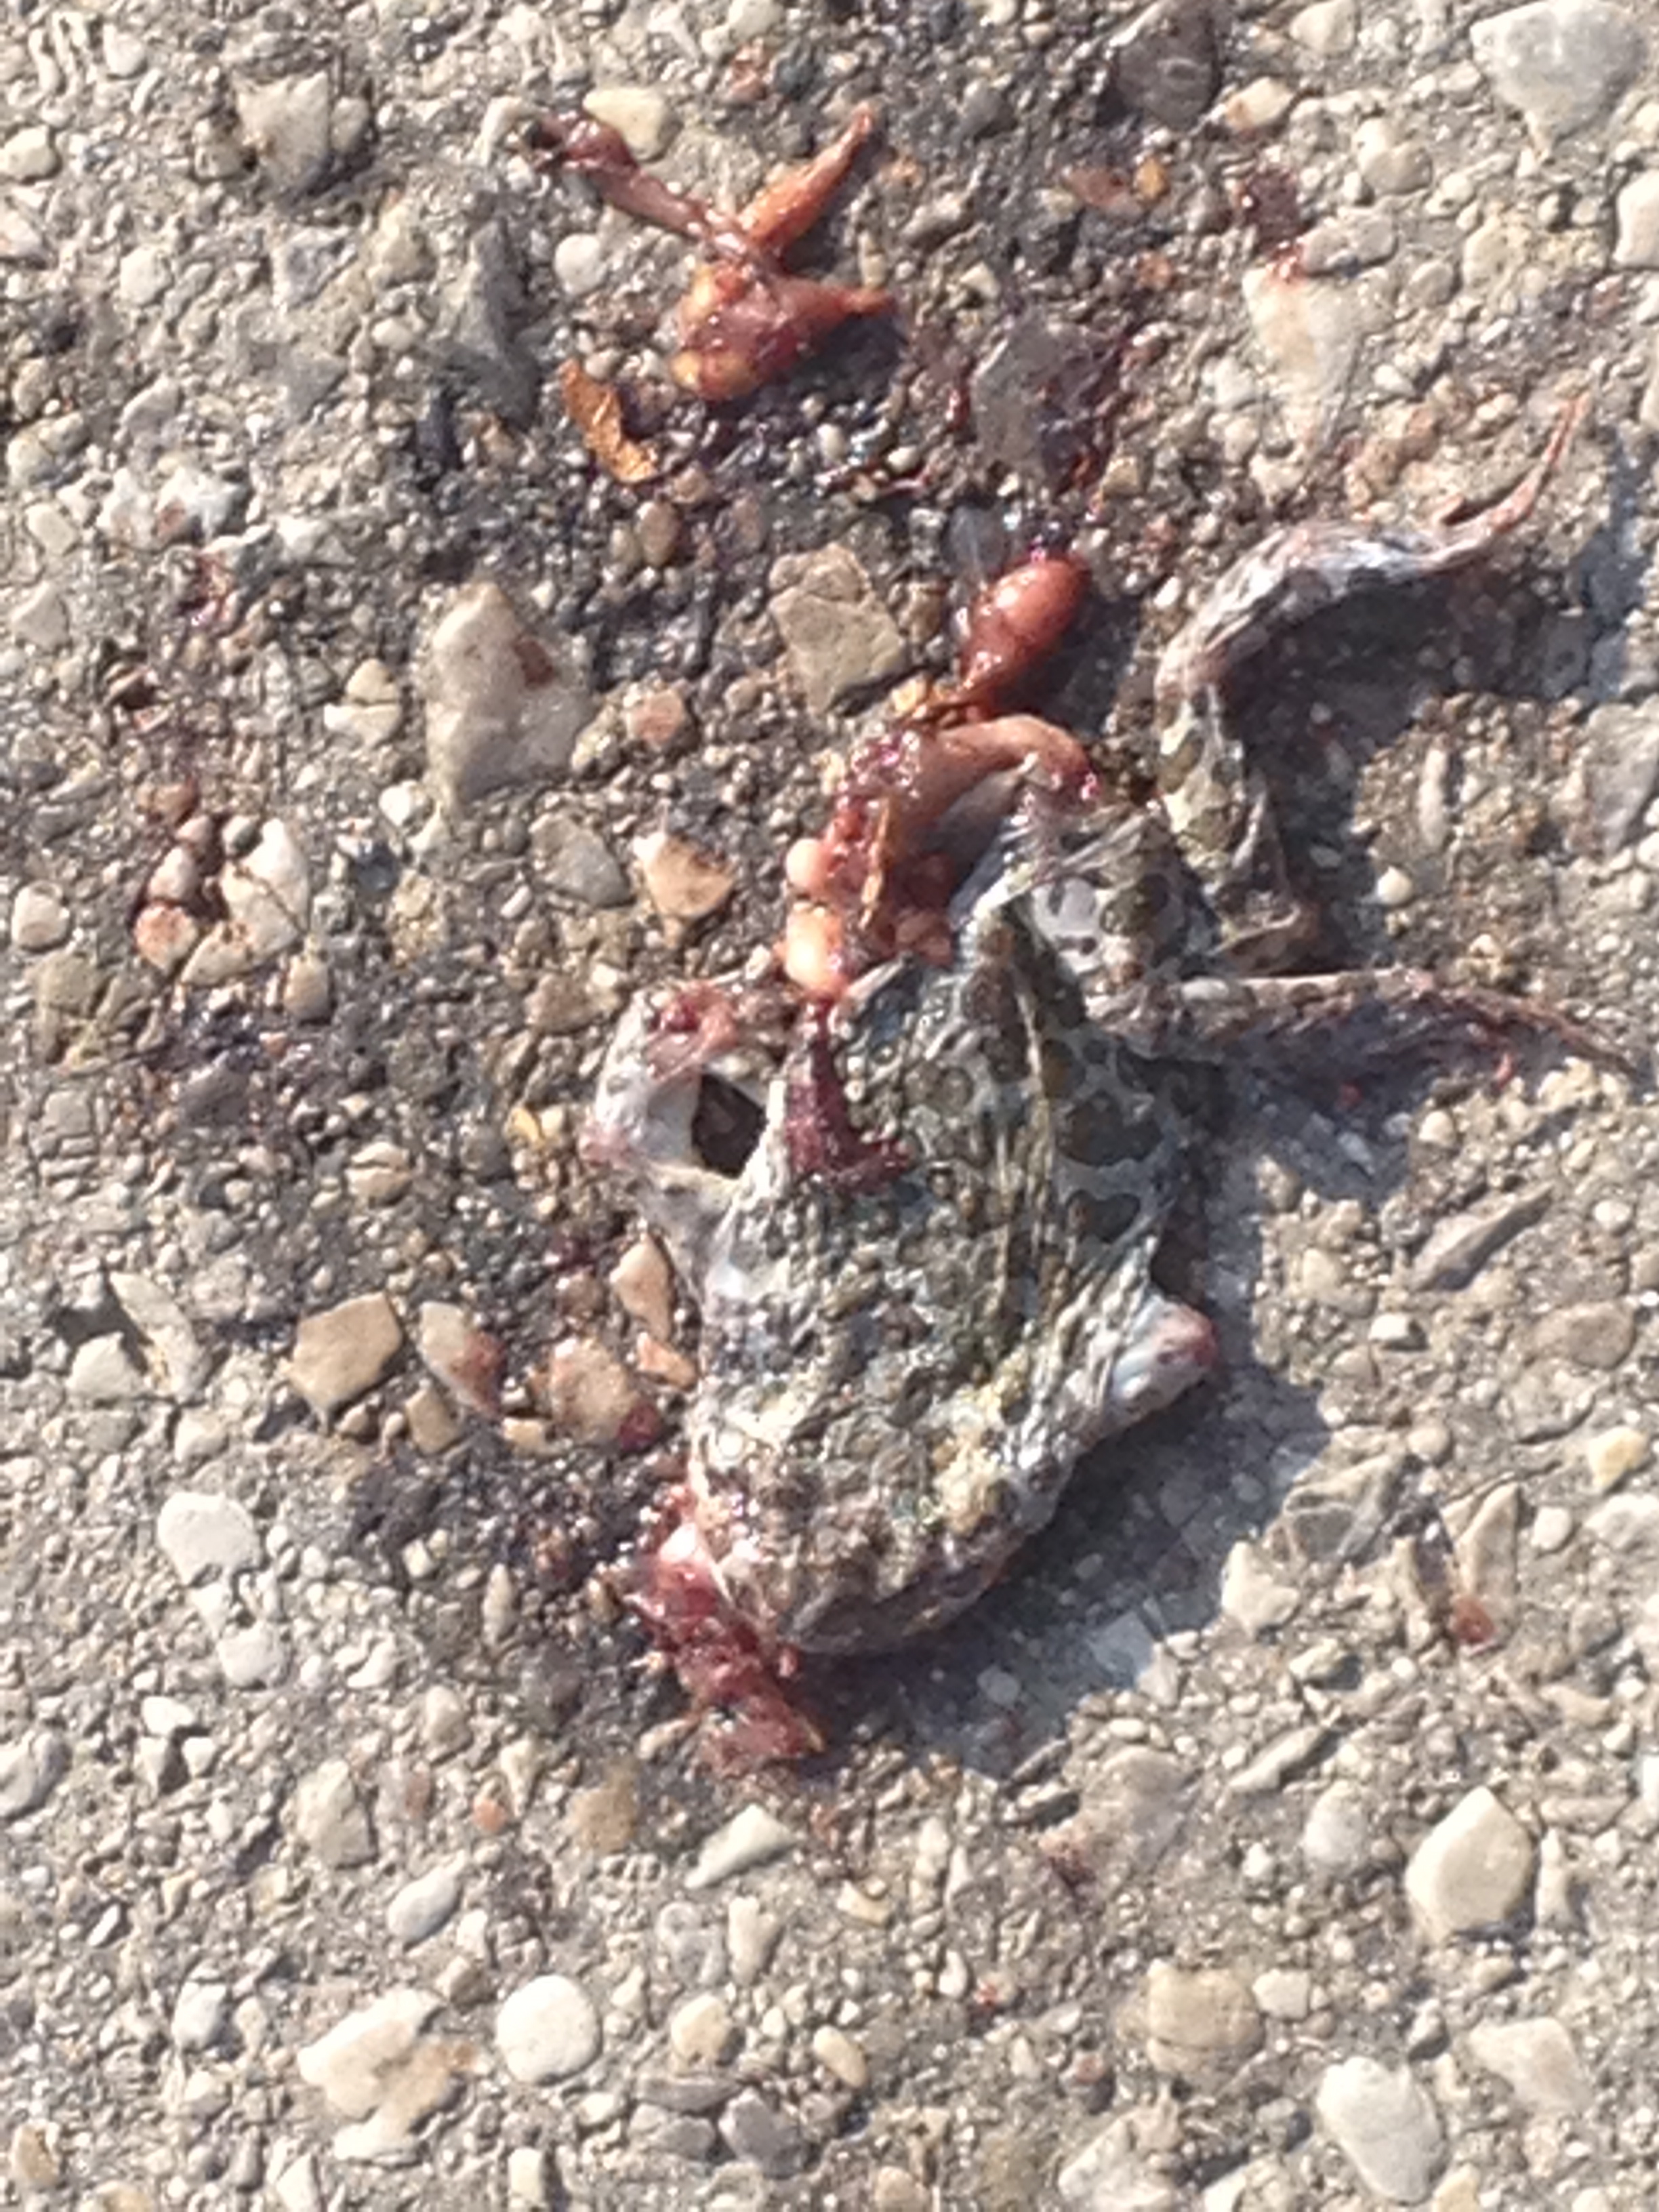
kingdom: Animalia
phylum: Chordata
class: Amphibia
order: Anura
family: Bufonidae
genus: Bufotes
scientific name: Bufotes viridis
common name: European green toad
